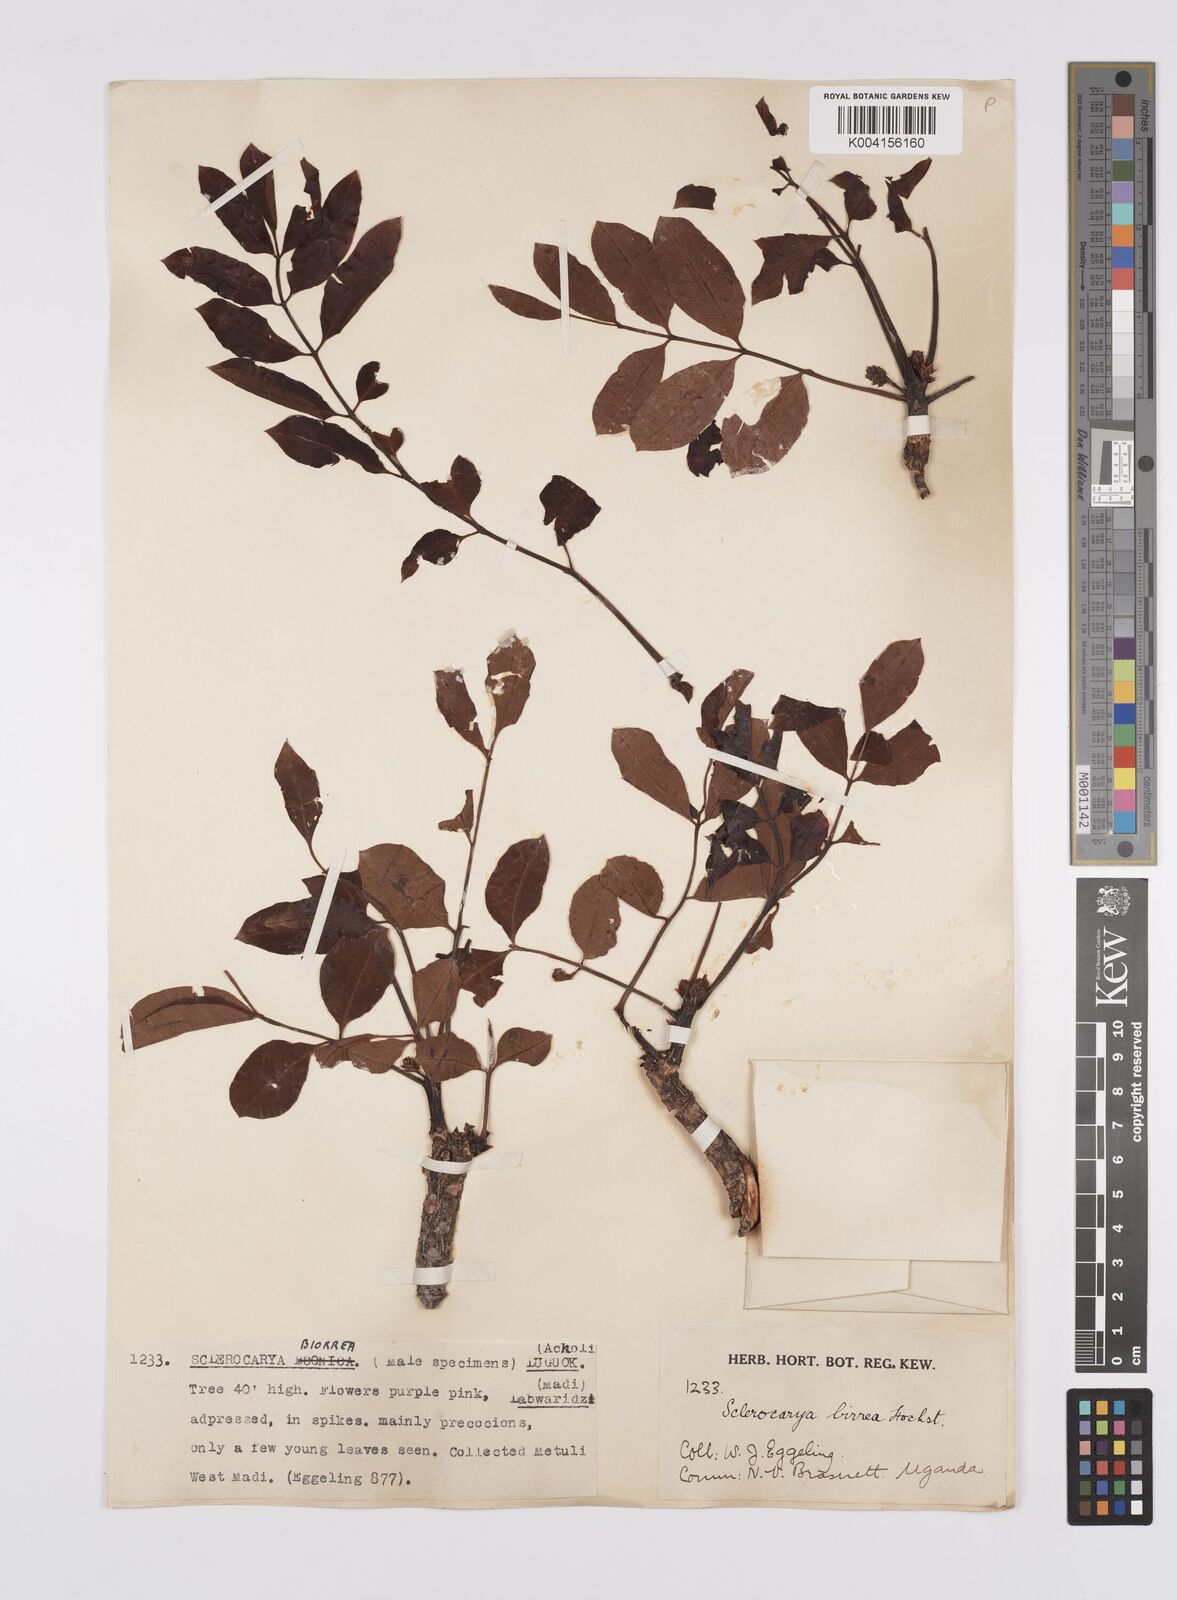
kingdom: Plantae
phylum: Tracheophyta
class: Magnoliopsida
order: Sapindales
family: Anacardiaceae
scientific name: Anacardiaceae
